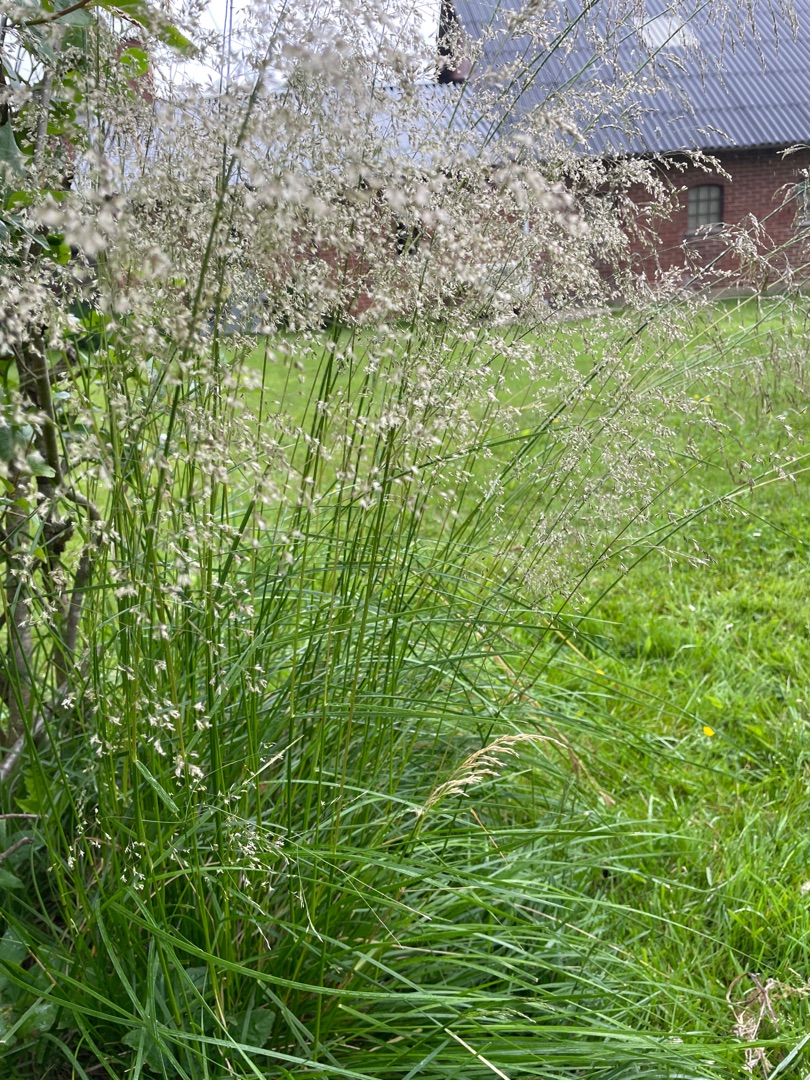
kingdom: Plantae
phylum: Tracheophyta
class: Liliopsida
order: Poales
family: Poaceae
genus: Deschampsia
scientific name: Deschampsia cespitosa
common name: Mose-bunke
